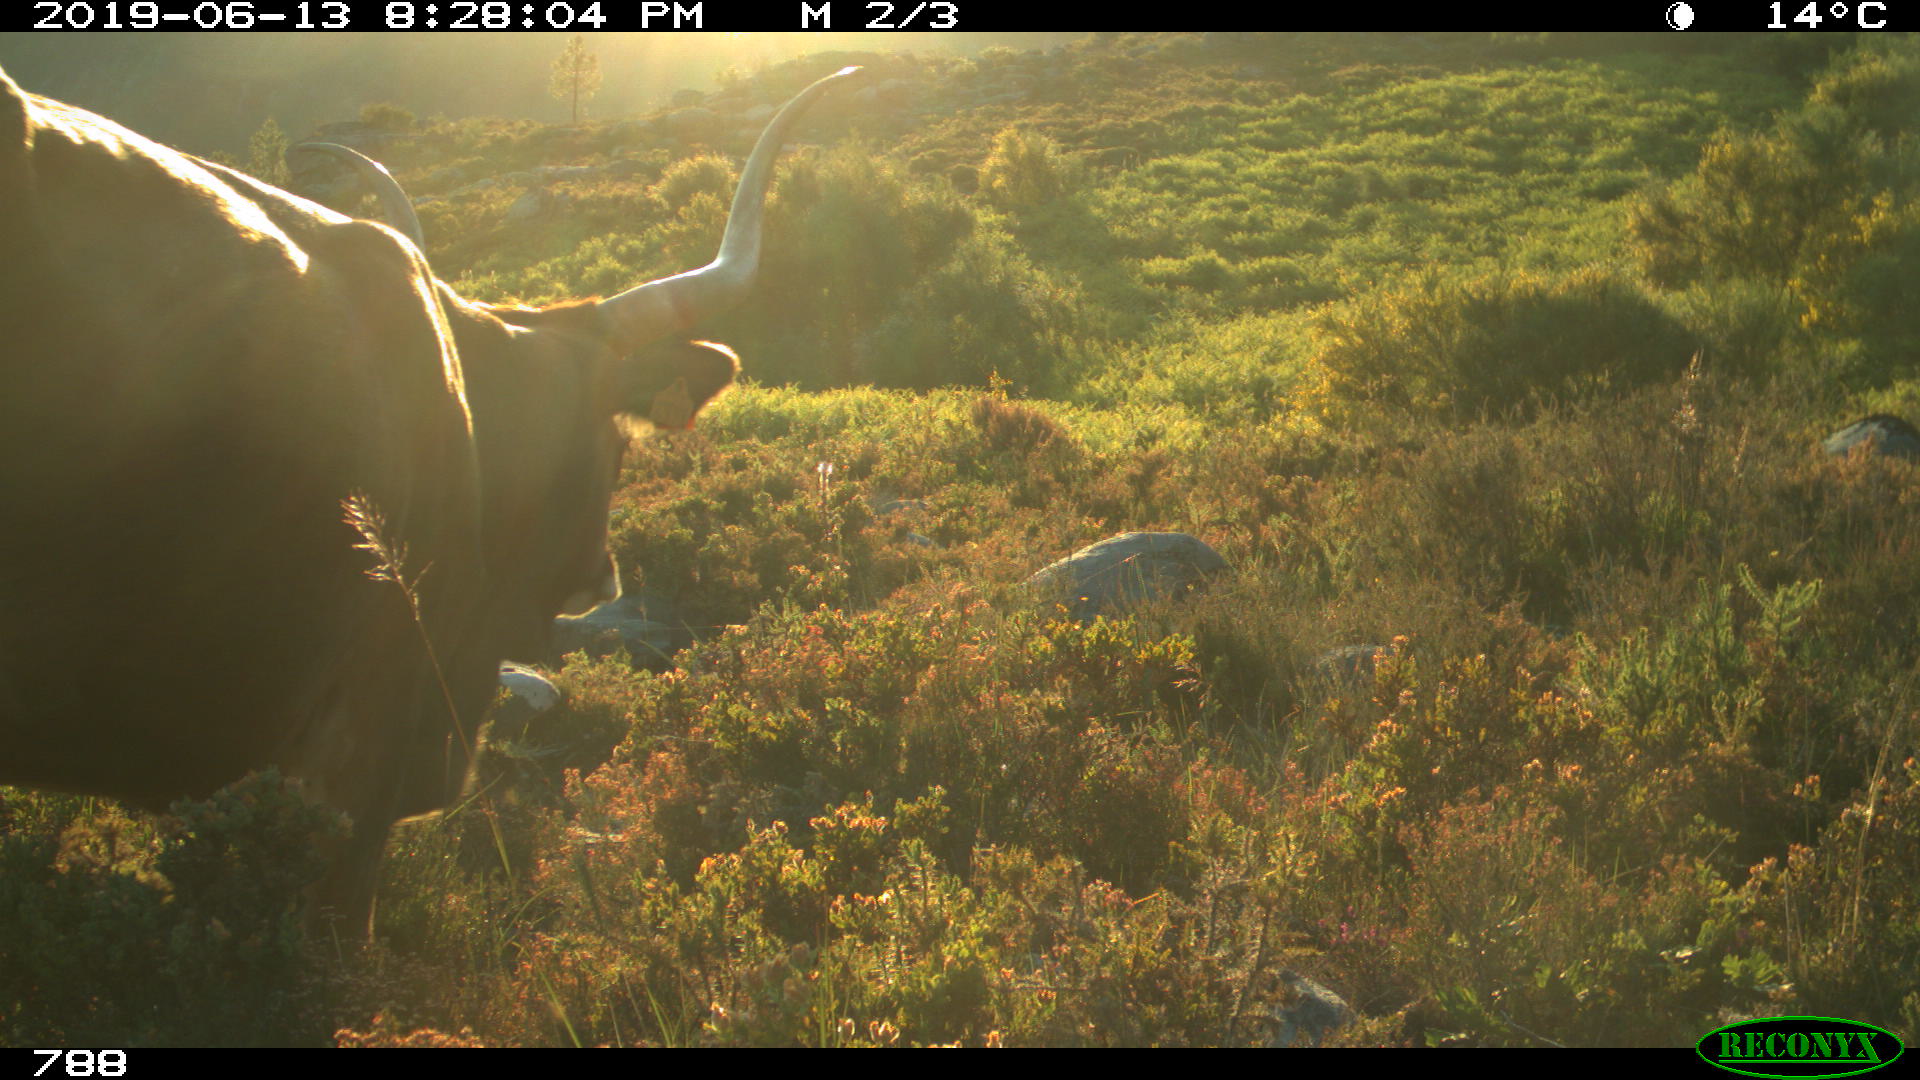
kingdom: Animalia
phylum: Chordata
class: Mammalia
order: Artiodactyla
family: Bovidae
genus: Bos
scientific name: Bos taurus
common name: Domesticated cattle
